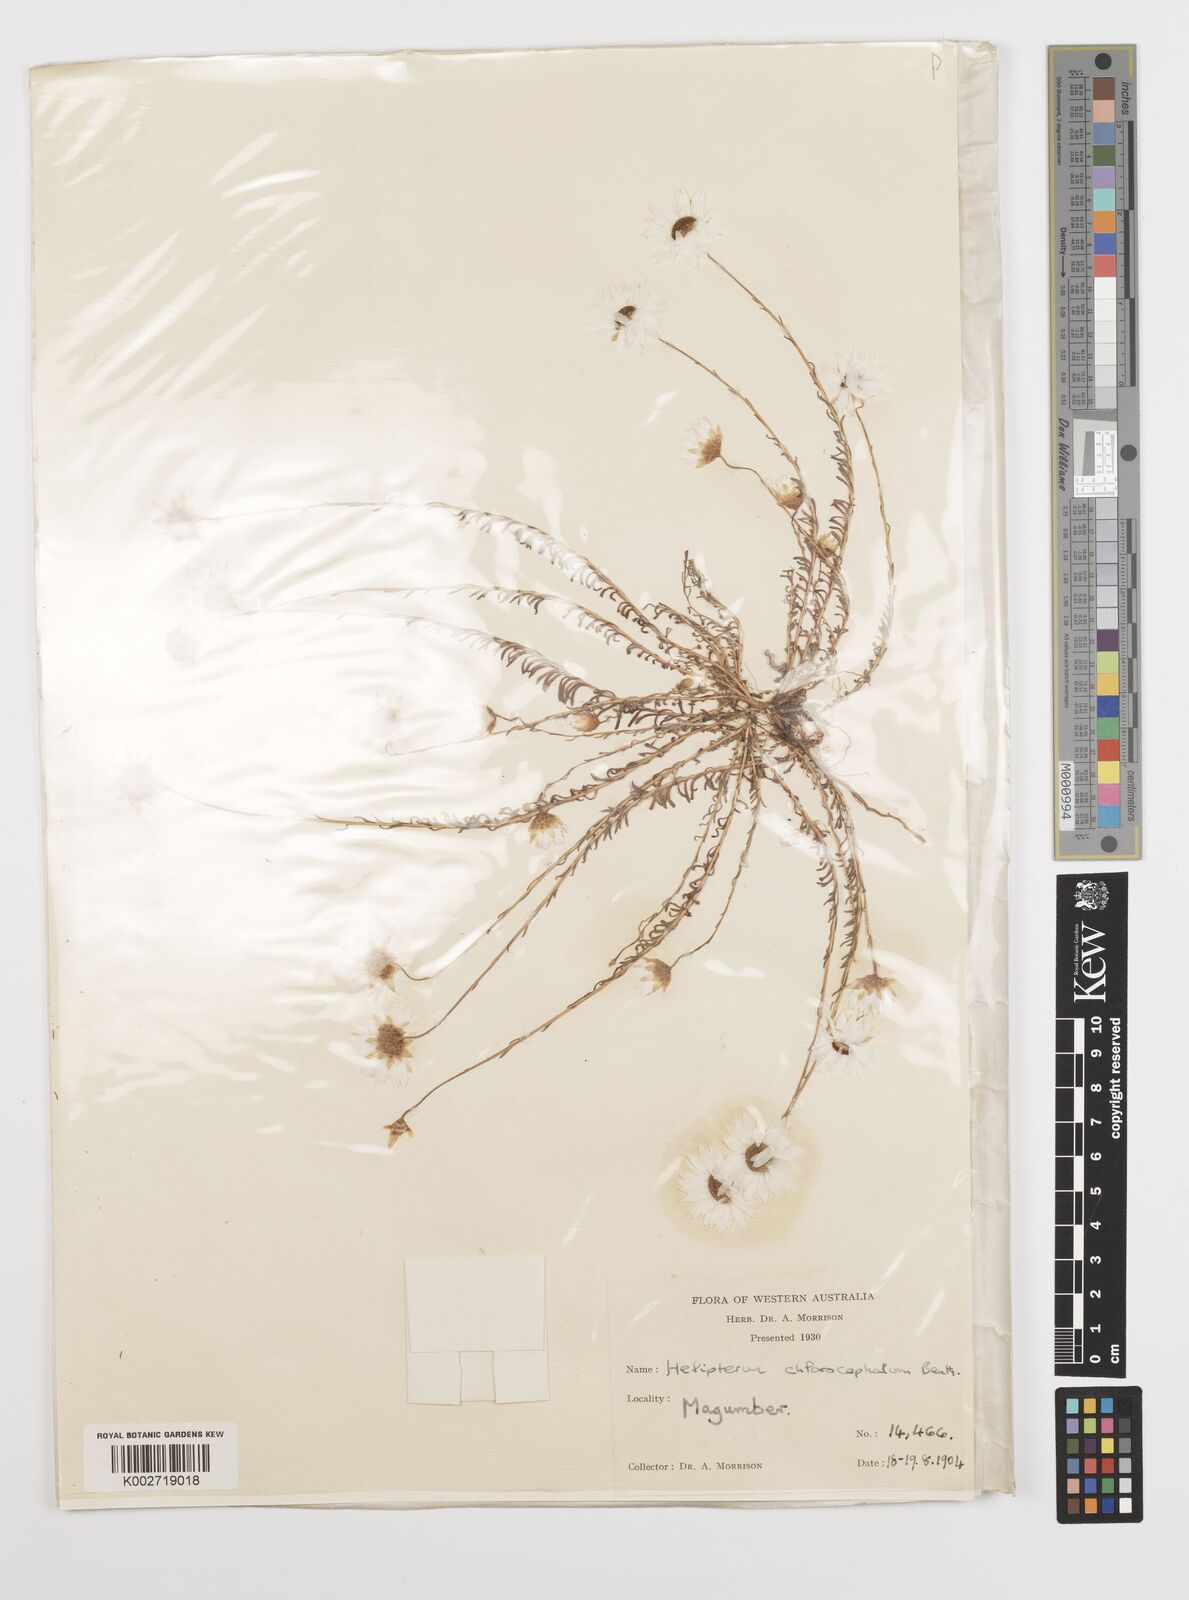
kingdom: Plantae
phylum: Tracheophyta
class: Magnoliopsida
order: Asterales
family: Asteraceae
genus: Rhodanthe
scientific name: Rhodanthe chlorocephala
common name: Rosy sunray
